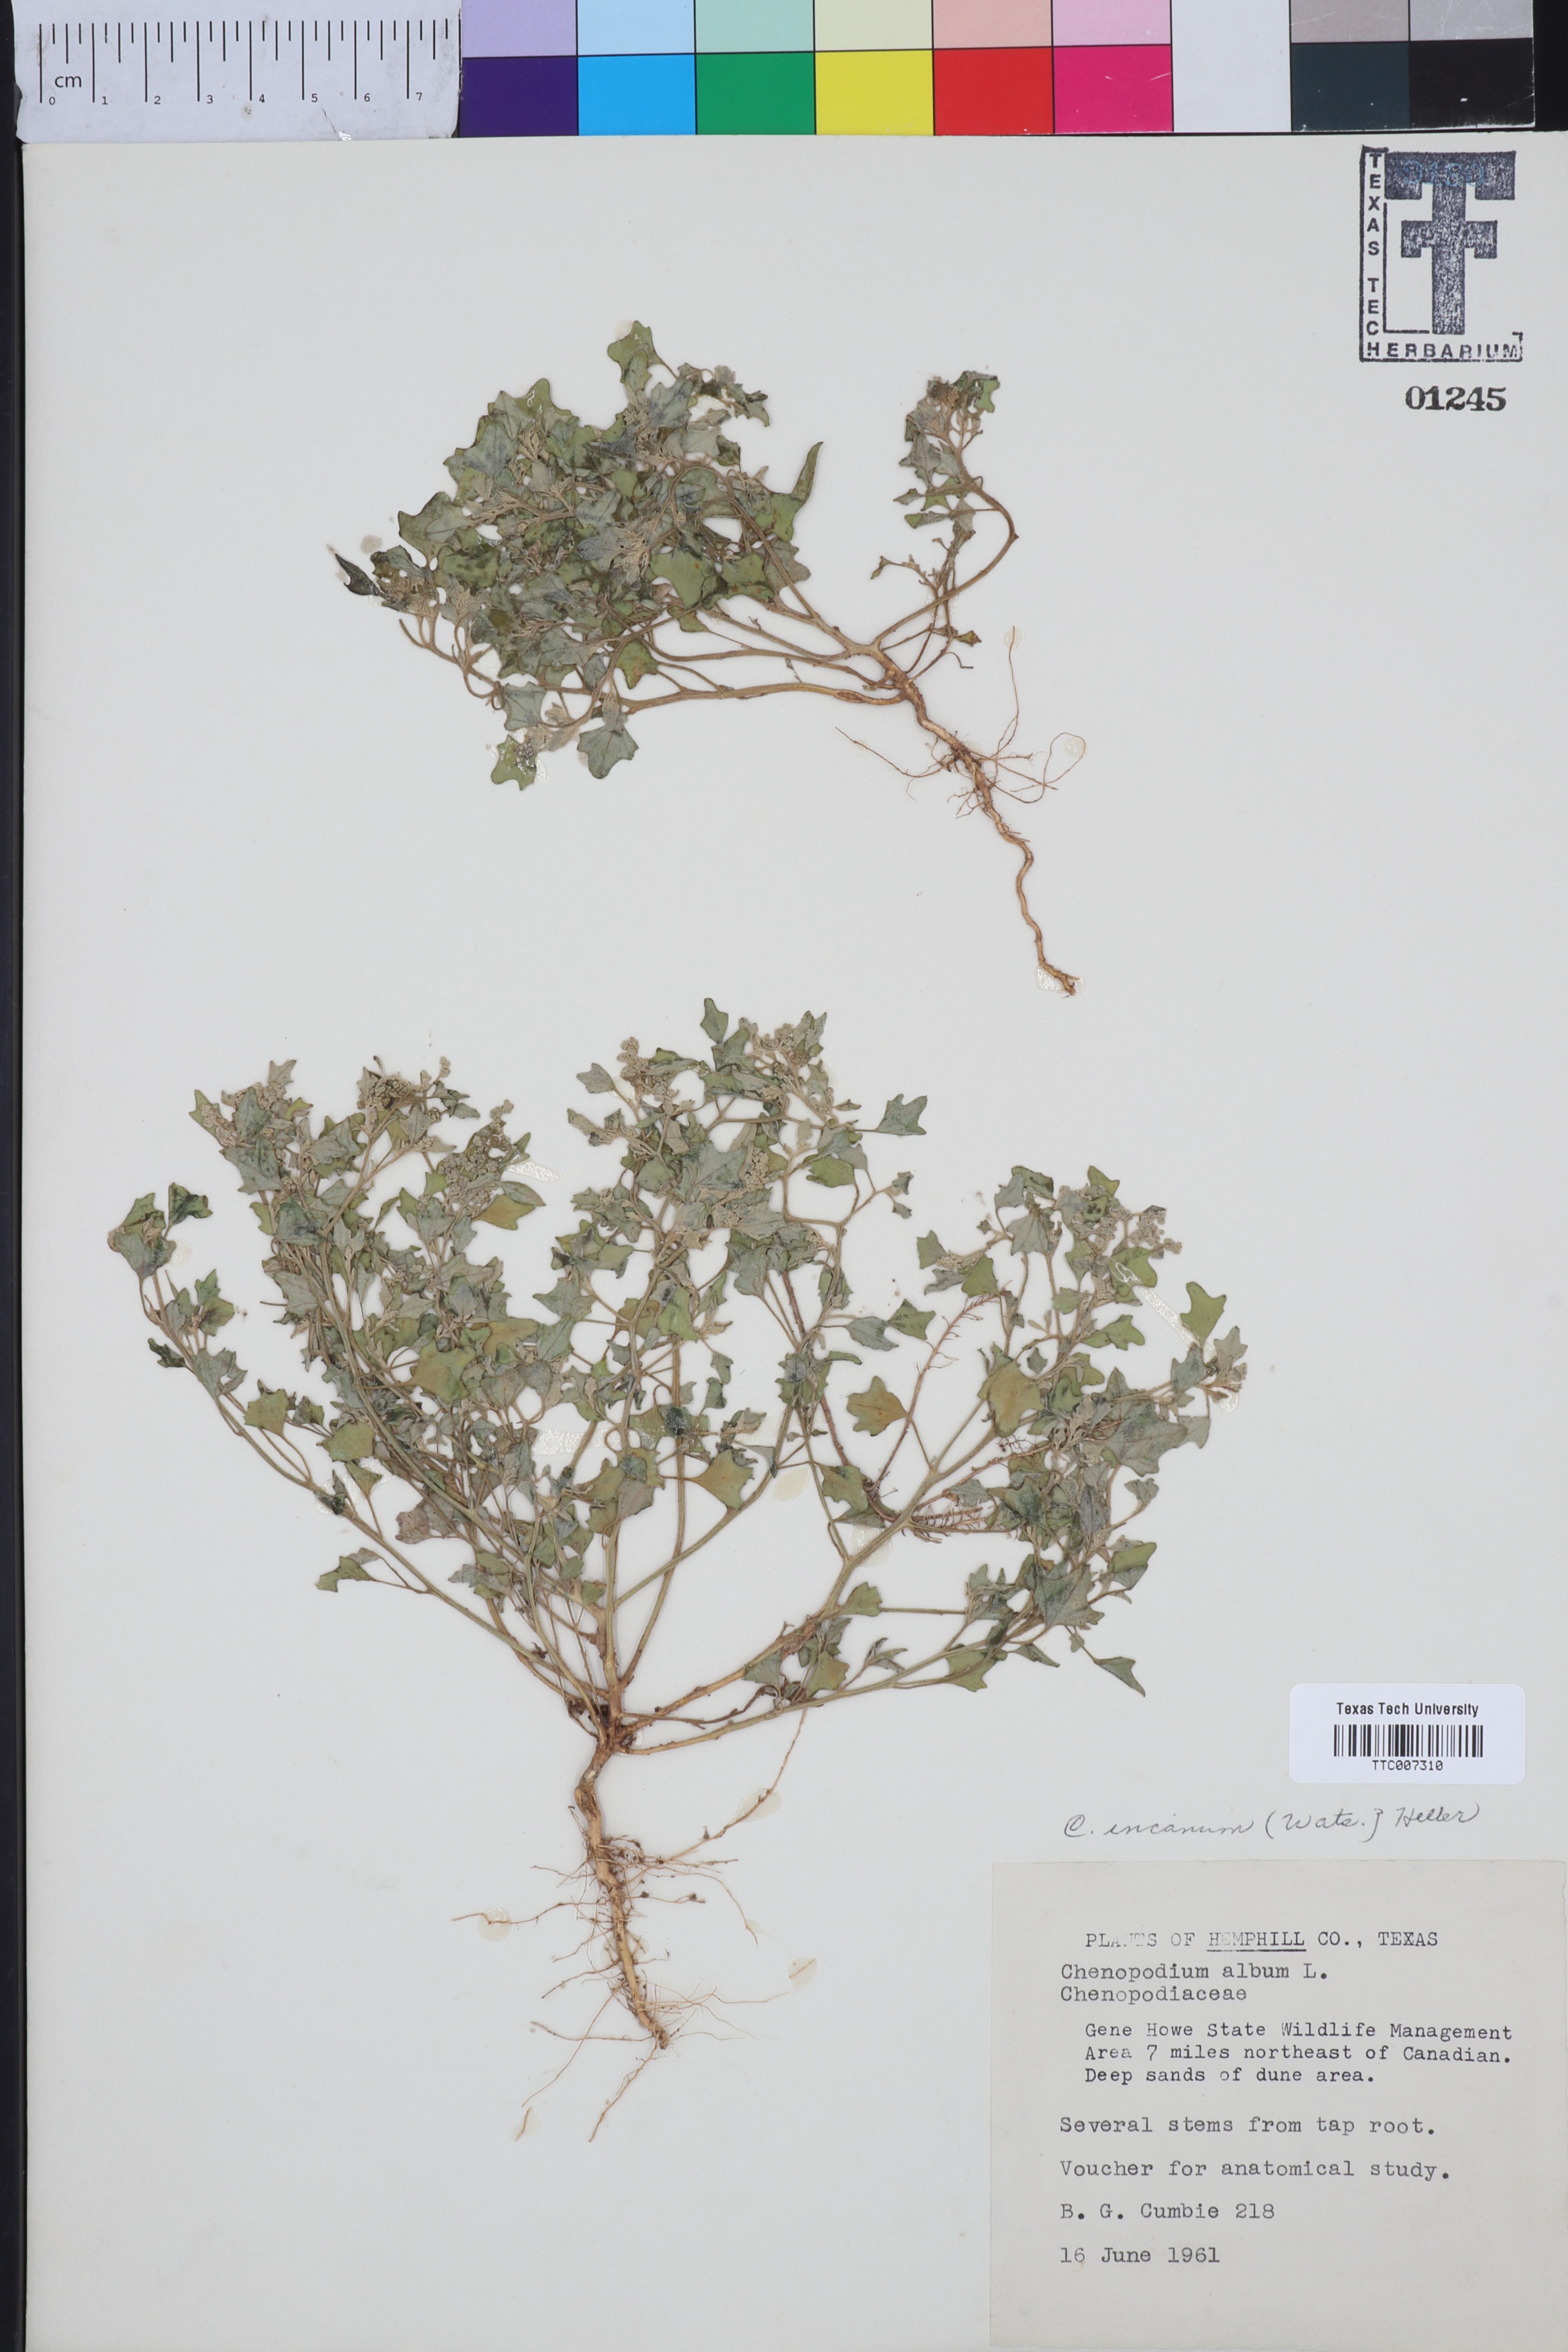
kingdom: Plantae
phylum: Tracheophyta
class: Magnoliopsida
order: Caryophyllales
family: Amaranthaceae
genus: Chenopodium
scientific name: Chenopodium incanum
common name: Hoary goosefoot
